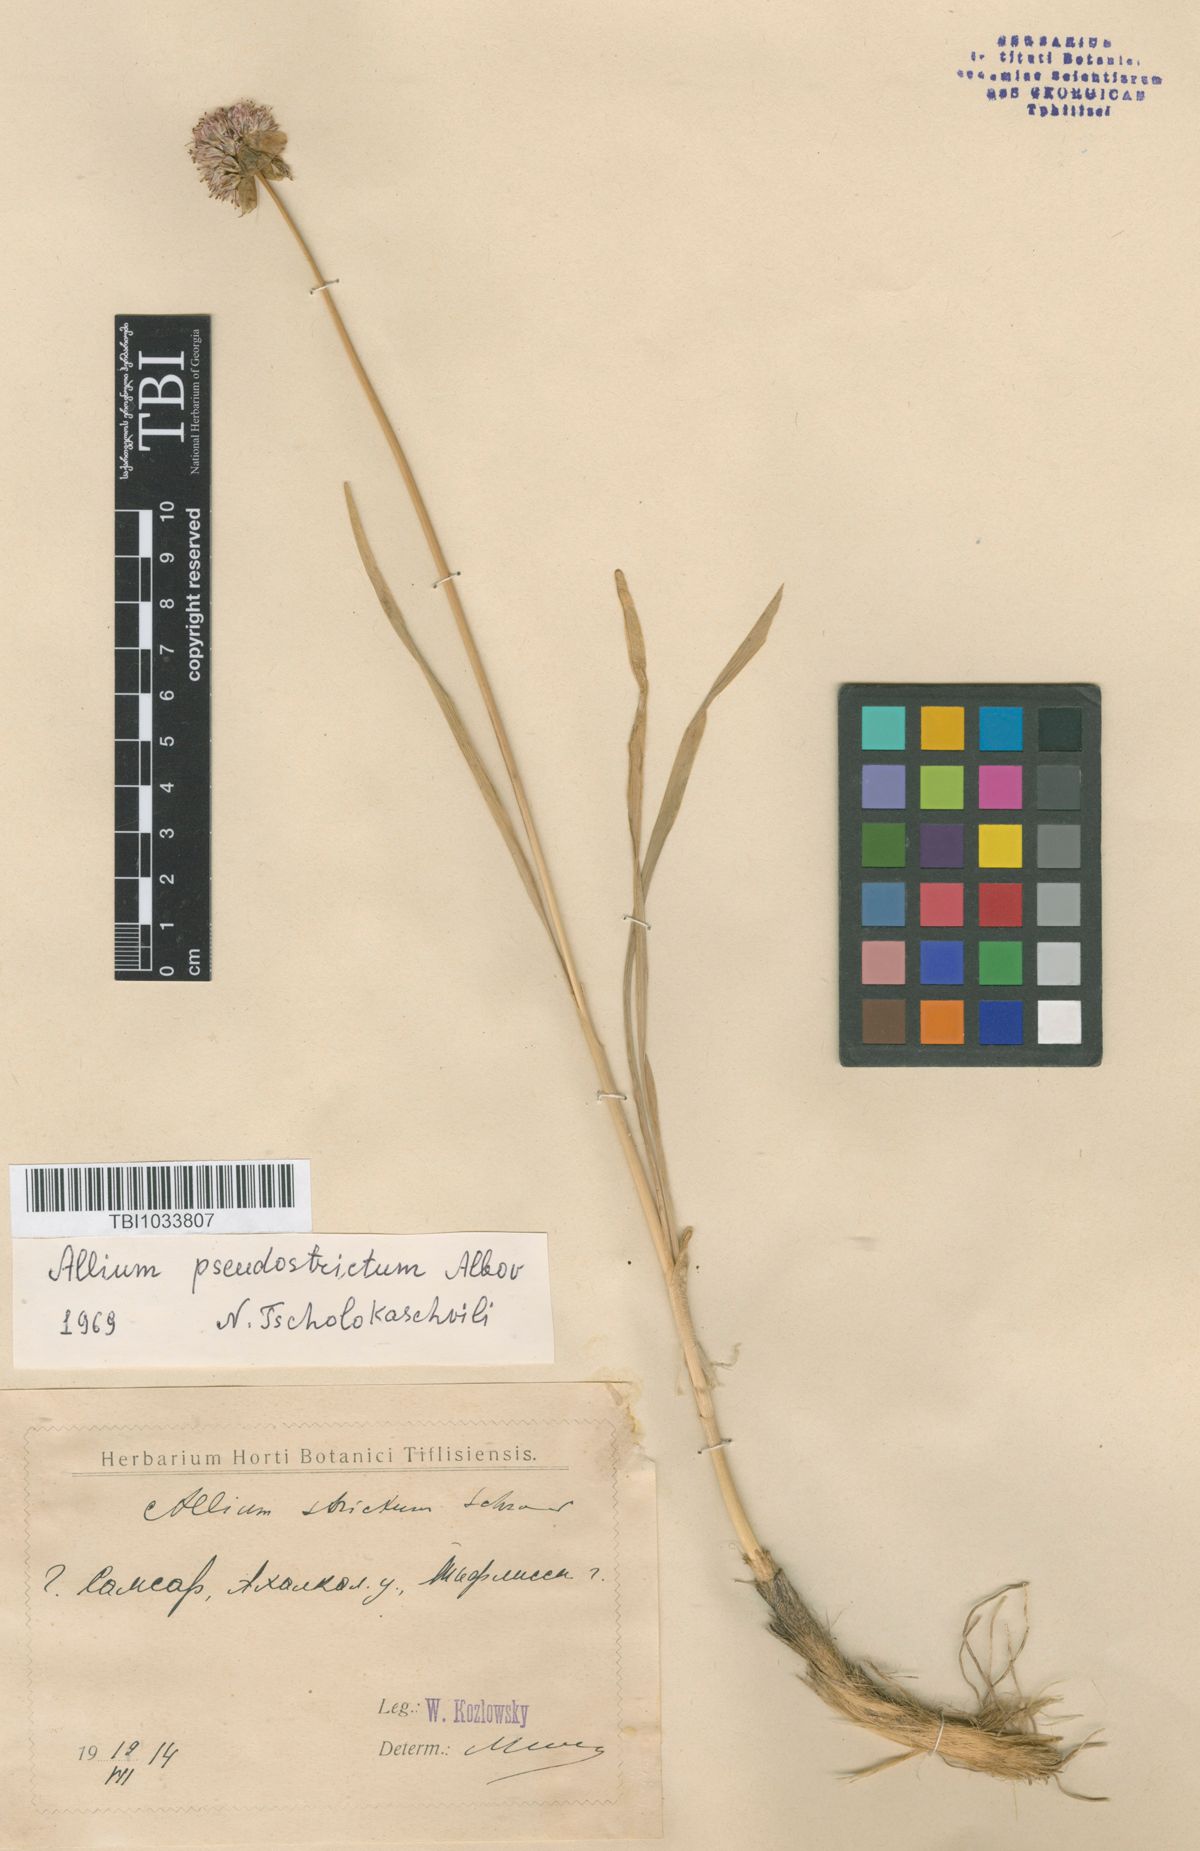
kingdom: Plantae
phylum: Tracheophyta
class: Liliopsida
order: Asparagales
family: Amaryllidaceae
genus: Allium
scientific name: Allium pseudostrictum
